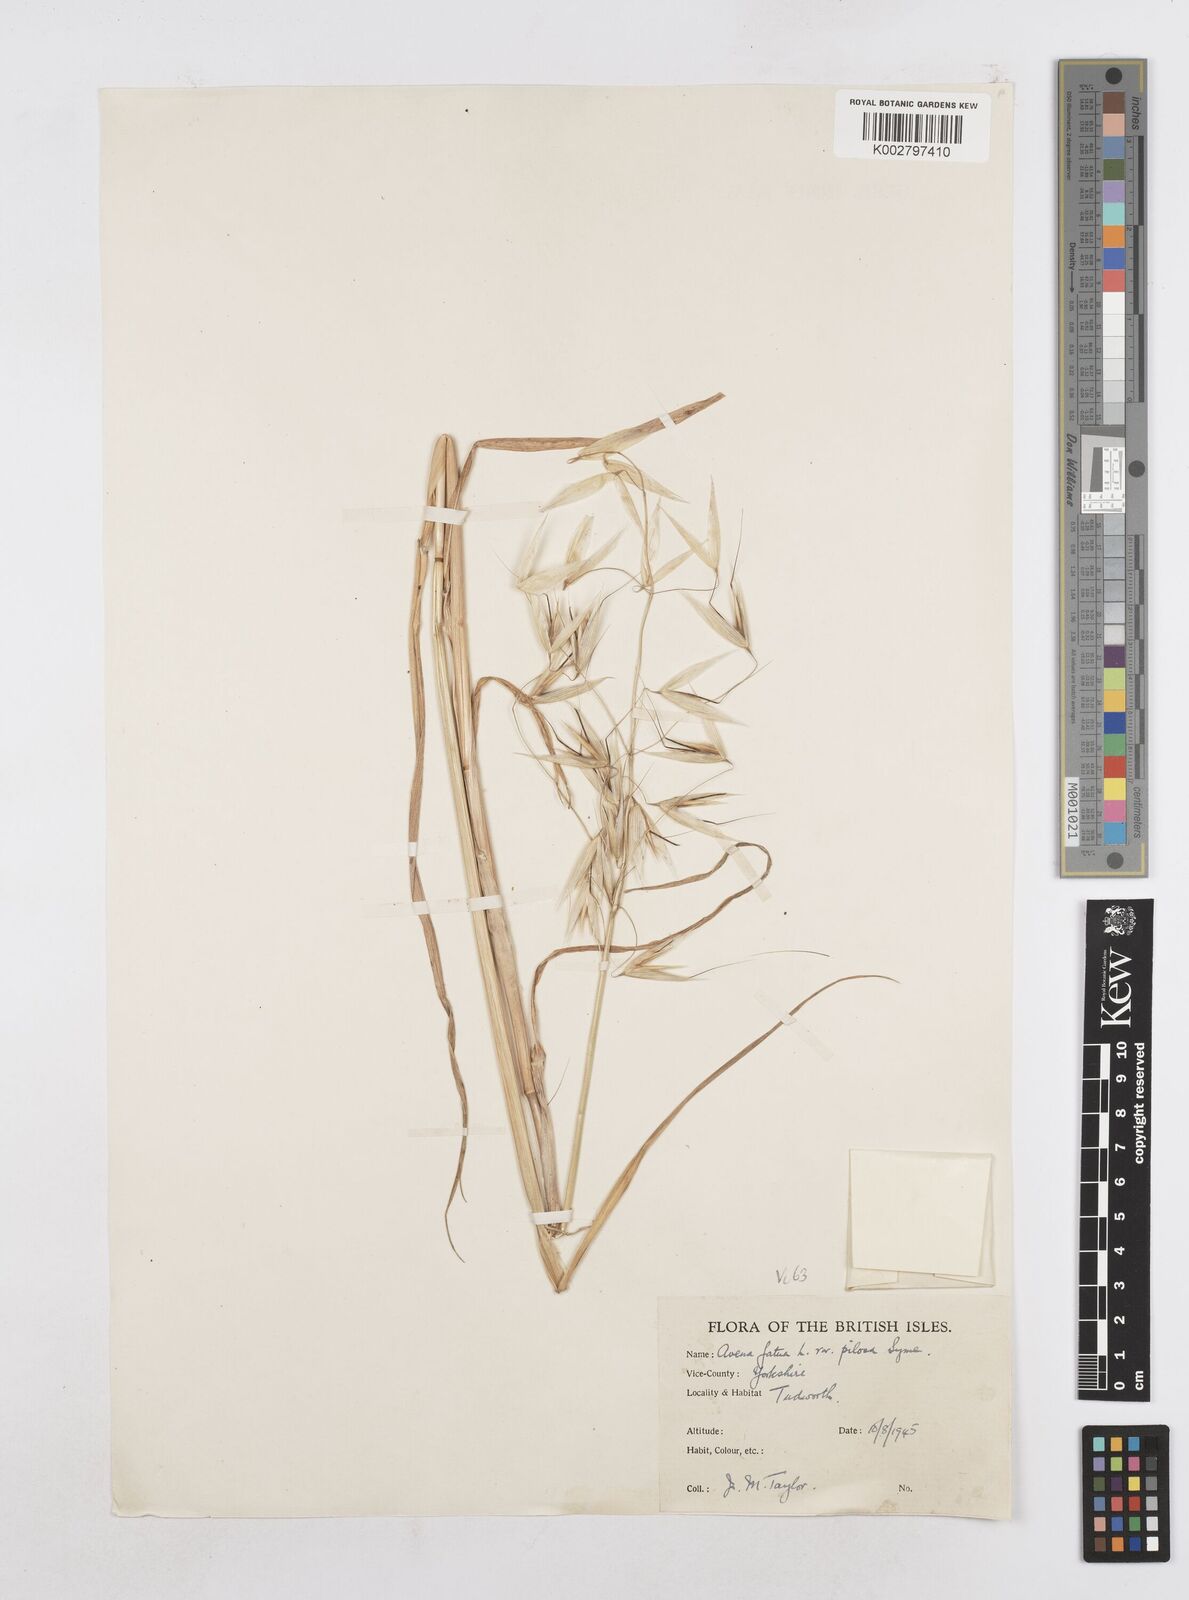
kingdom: Plantae
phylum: Tracheophyta
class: Liliopsida
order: Poales
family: Poaceae
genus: Avena
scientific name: Avena fatua
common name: Wild oat
